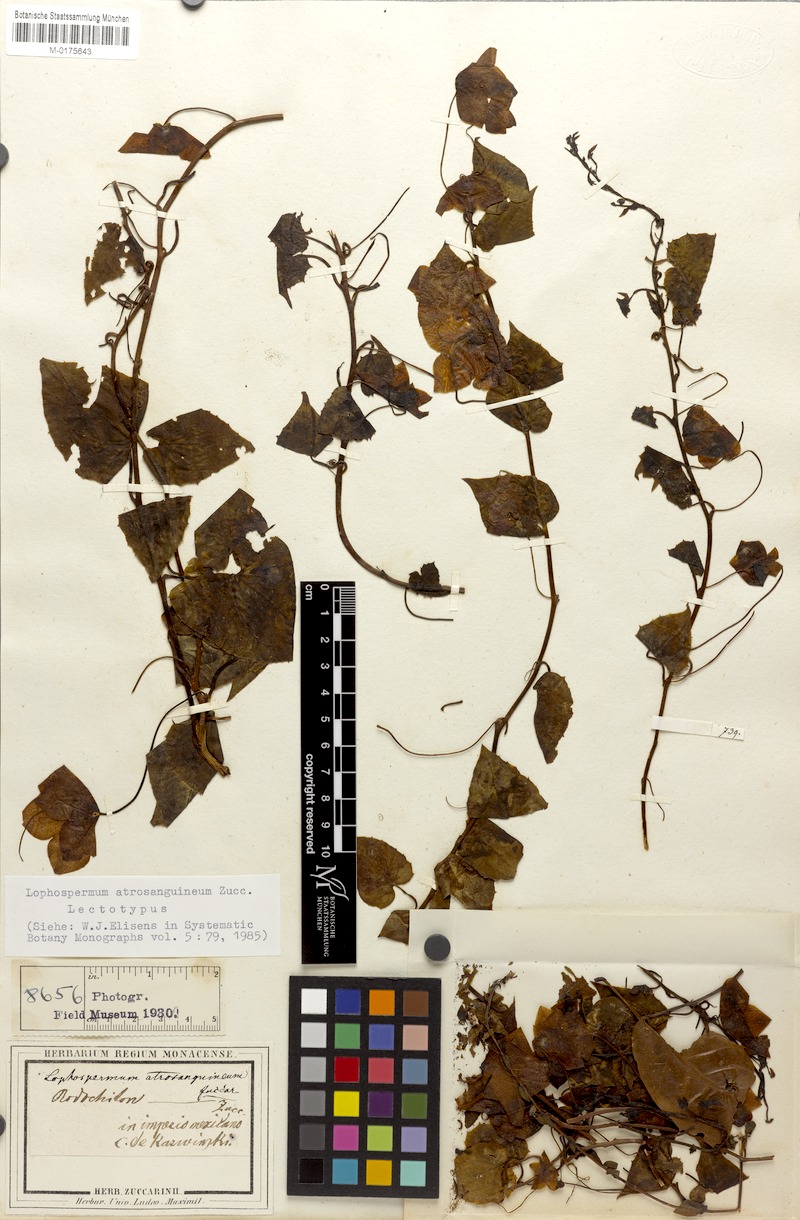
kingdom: Plantae
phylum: Tracheophyta
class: Magnoliopsida
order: Lamiales
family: Plantaginaceae
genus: Rhodochiton
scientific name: Rhodochiton atrosanguineus
